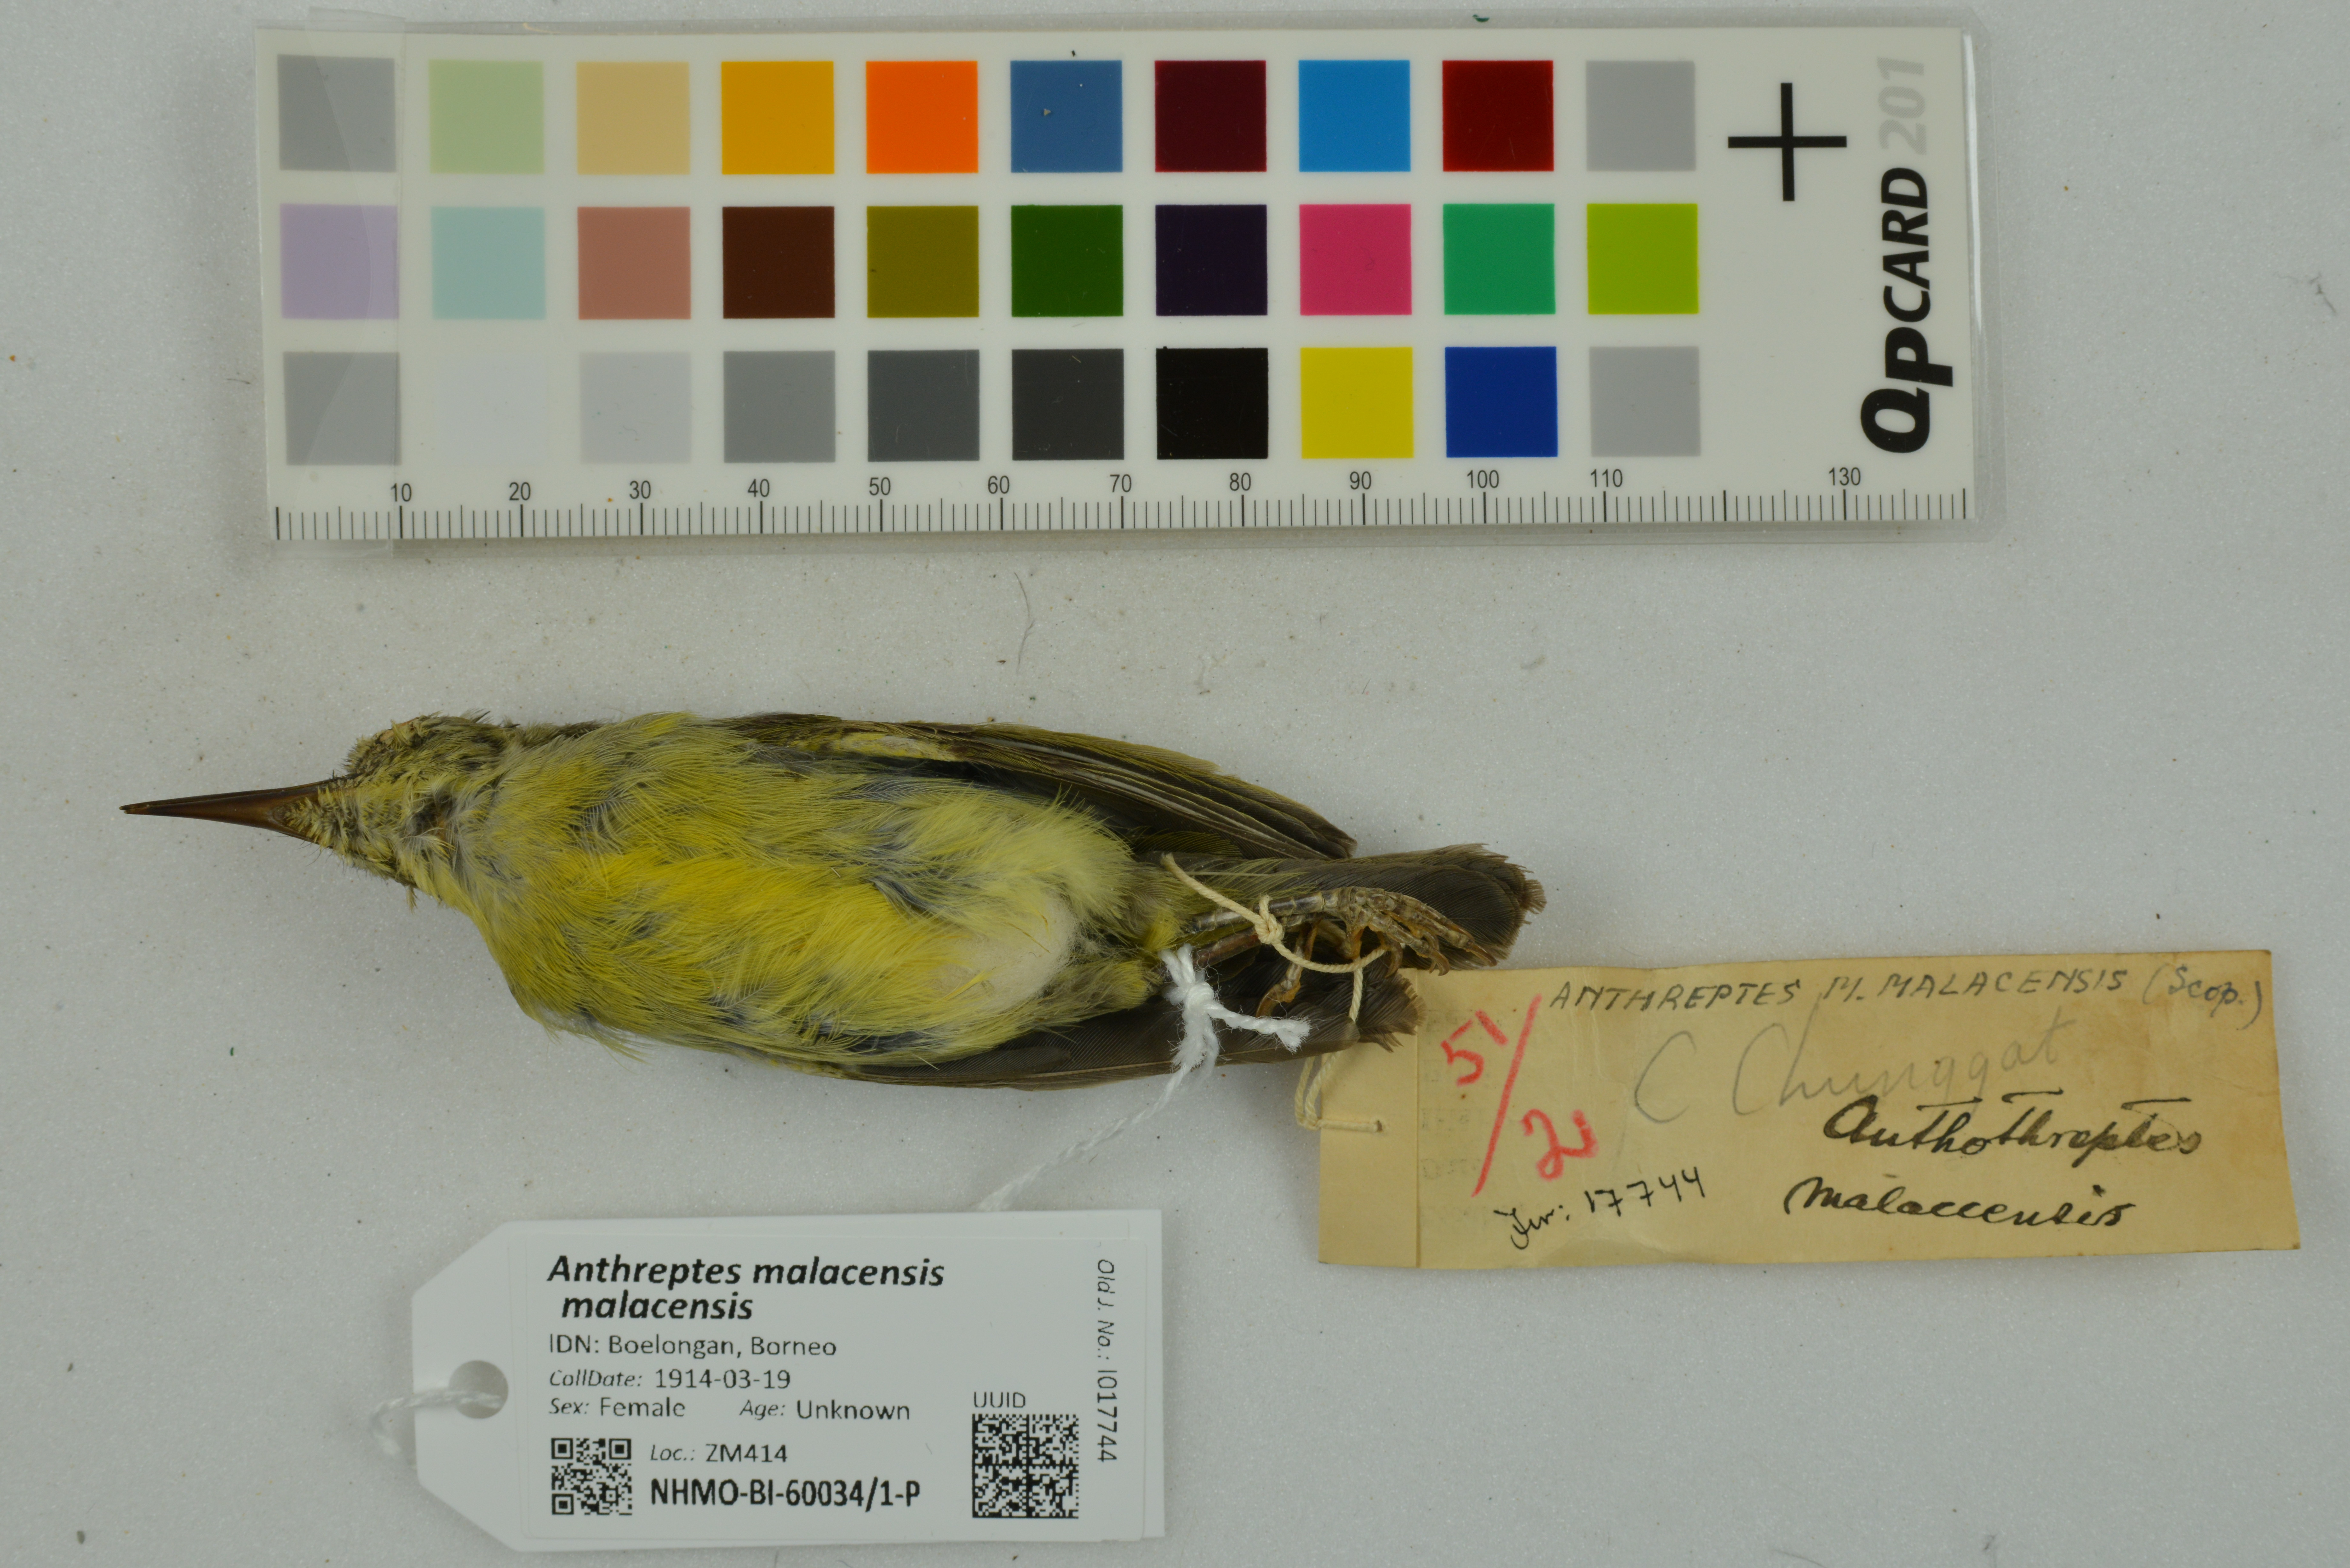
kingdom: Animalia
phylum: Chordata
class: Aves
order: Passeriformes
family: Nectariniidae
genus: Anthreptes
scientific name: Anthreptes malacensis
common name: Brown-throated sunbird
